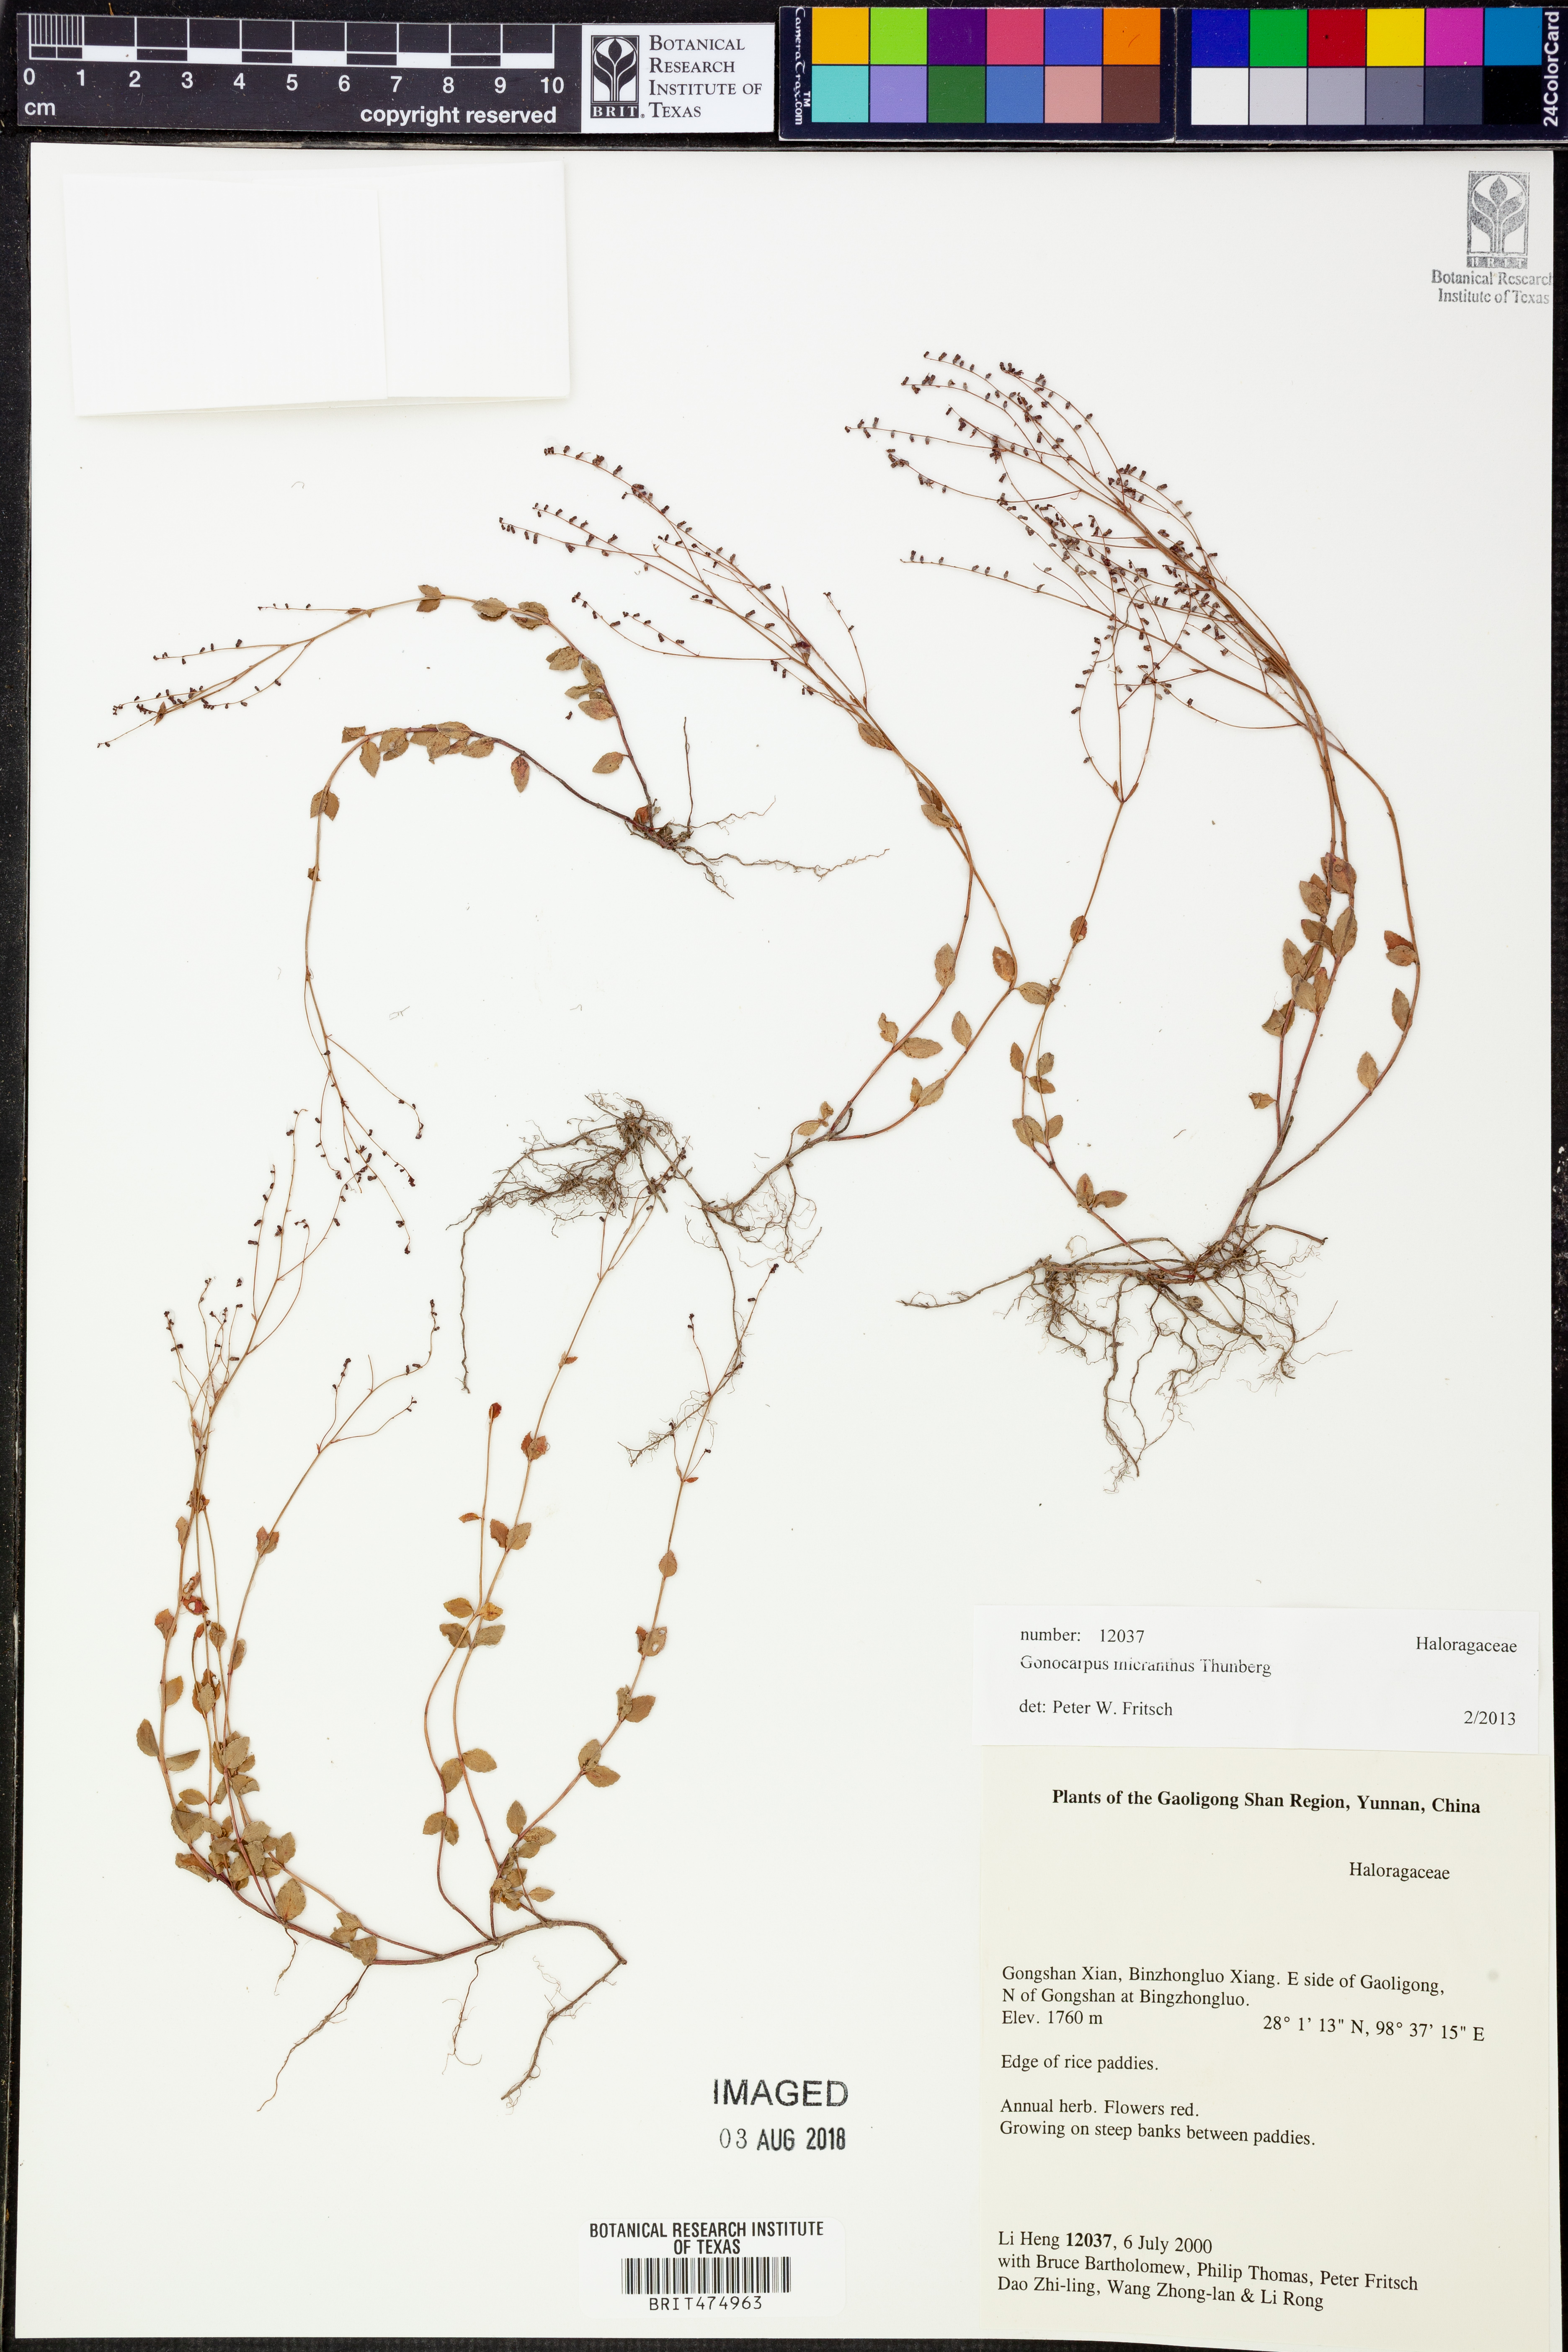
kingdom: Plantae
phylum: Tracheophyta
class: Magnoliopsida
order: Saxifragales
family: Haloragaceae
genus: Gonocarpus
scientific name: Gonocarpus micranthus
